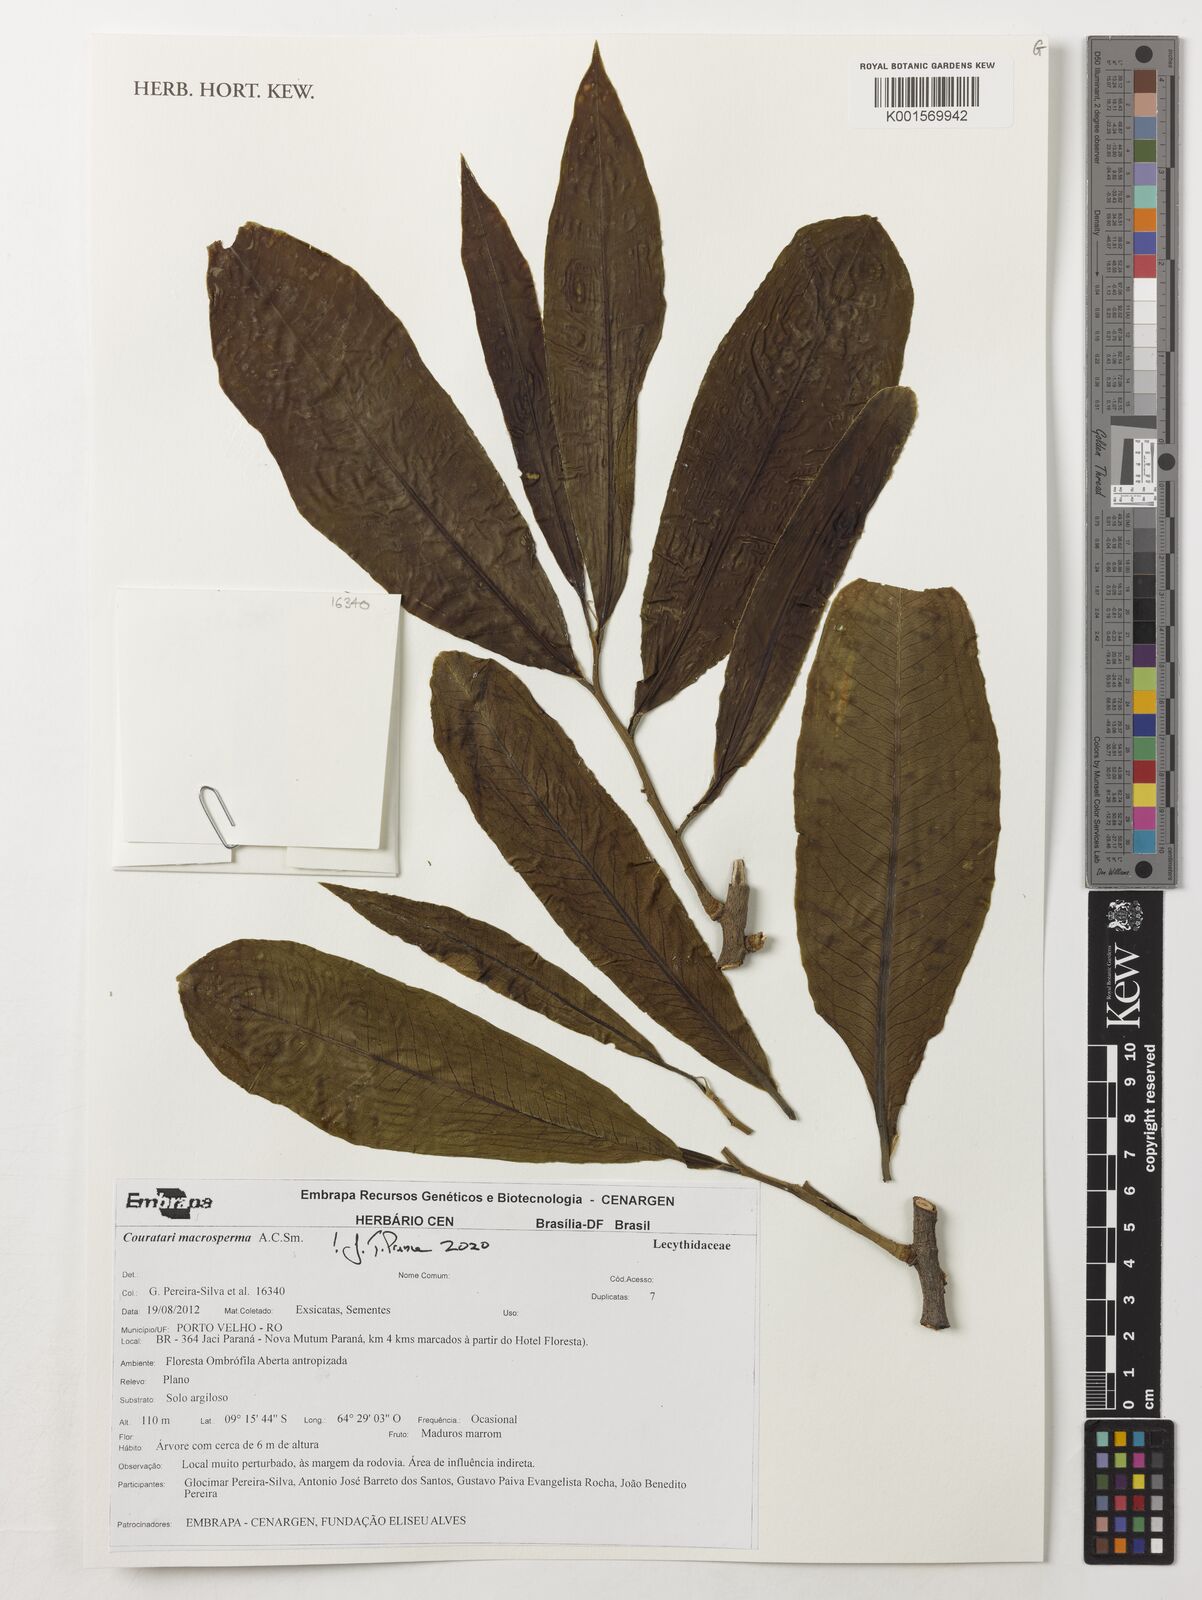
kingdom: Plantae
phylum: Tracheophyta
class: Magnoliopsida
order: Ericales
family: Lecythidaceae
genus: Couratari
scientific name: Couratari macrosperma
